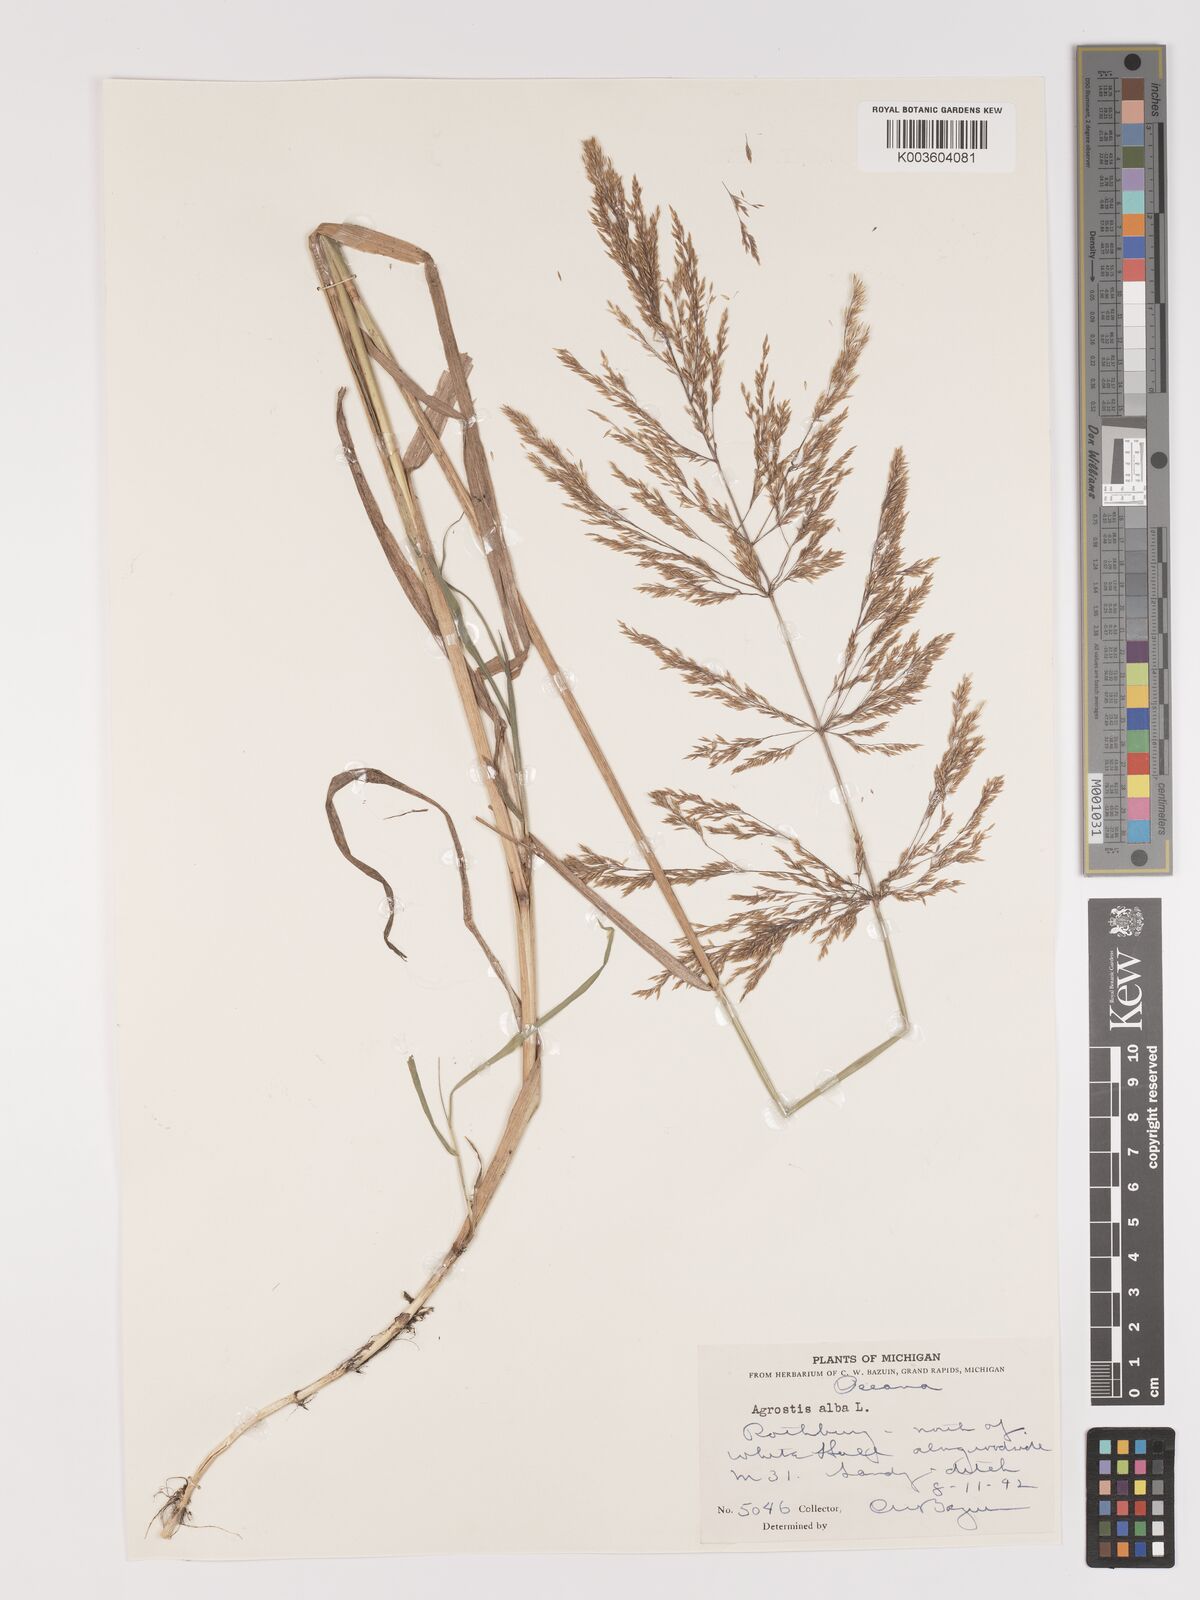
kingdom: Plantae
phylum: Tracheophyta
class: Liliopsida
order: Poales
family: Poaceae
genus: Agrostis
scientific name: Agrostis gigantea
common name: Black bent
